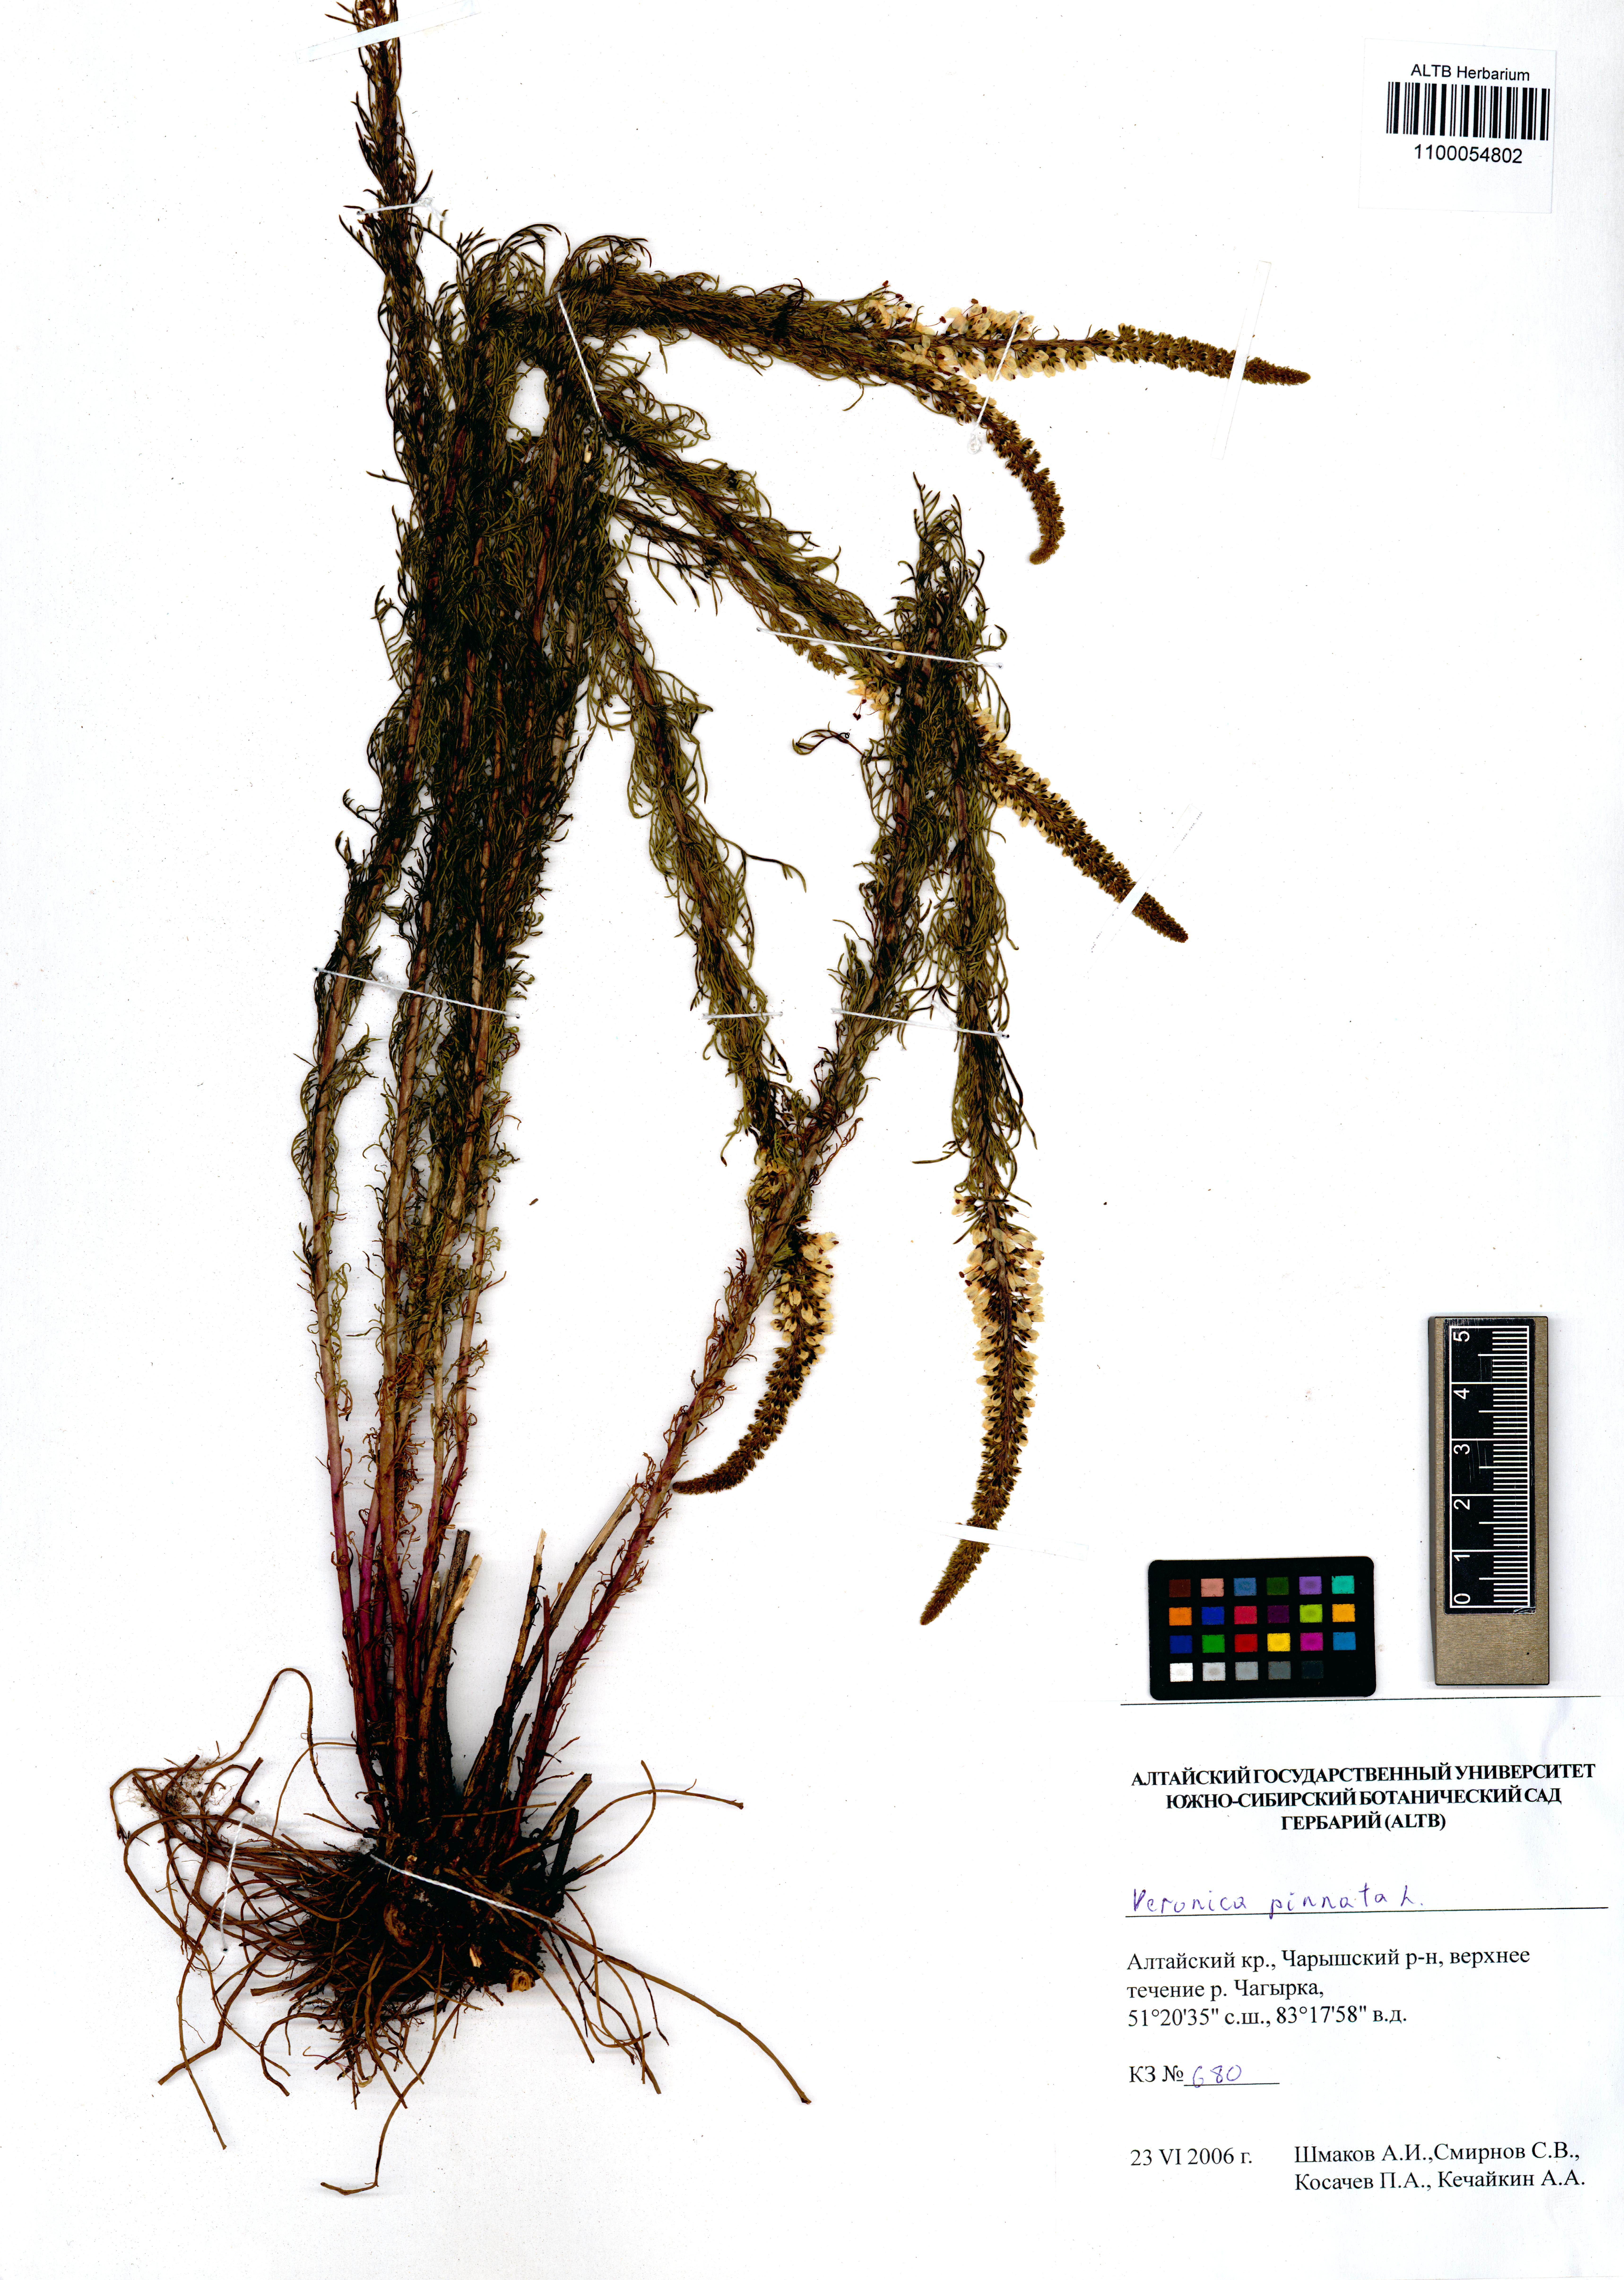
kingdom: Plantae
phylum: Tracheophyta
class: Magnoliopsida
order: Lamiales
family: Plantaginaceae
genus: Veronica
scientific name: Veronica pinnata
